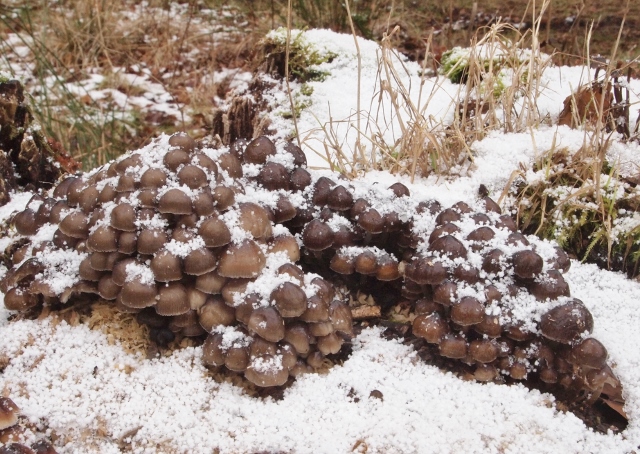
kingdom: Fungi
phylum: Basidiomycota
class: Agaricomycetes
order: Agaricales
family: Mycenaceae
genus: Mycena
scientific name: Mycena tintinnabulum
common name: vinter-huesvamp
